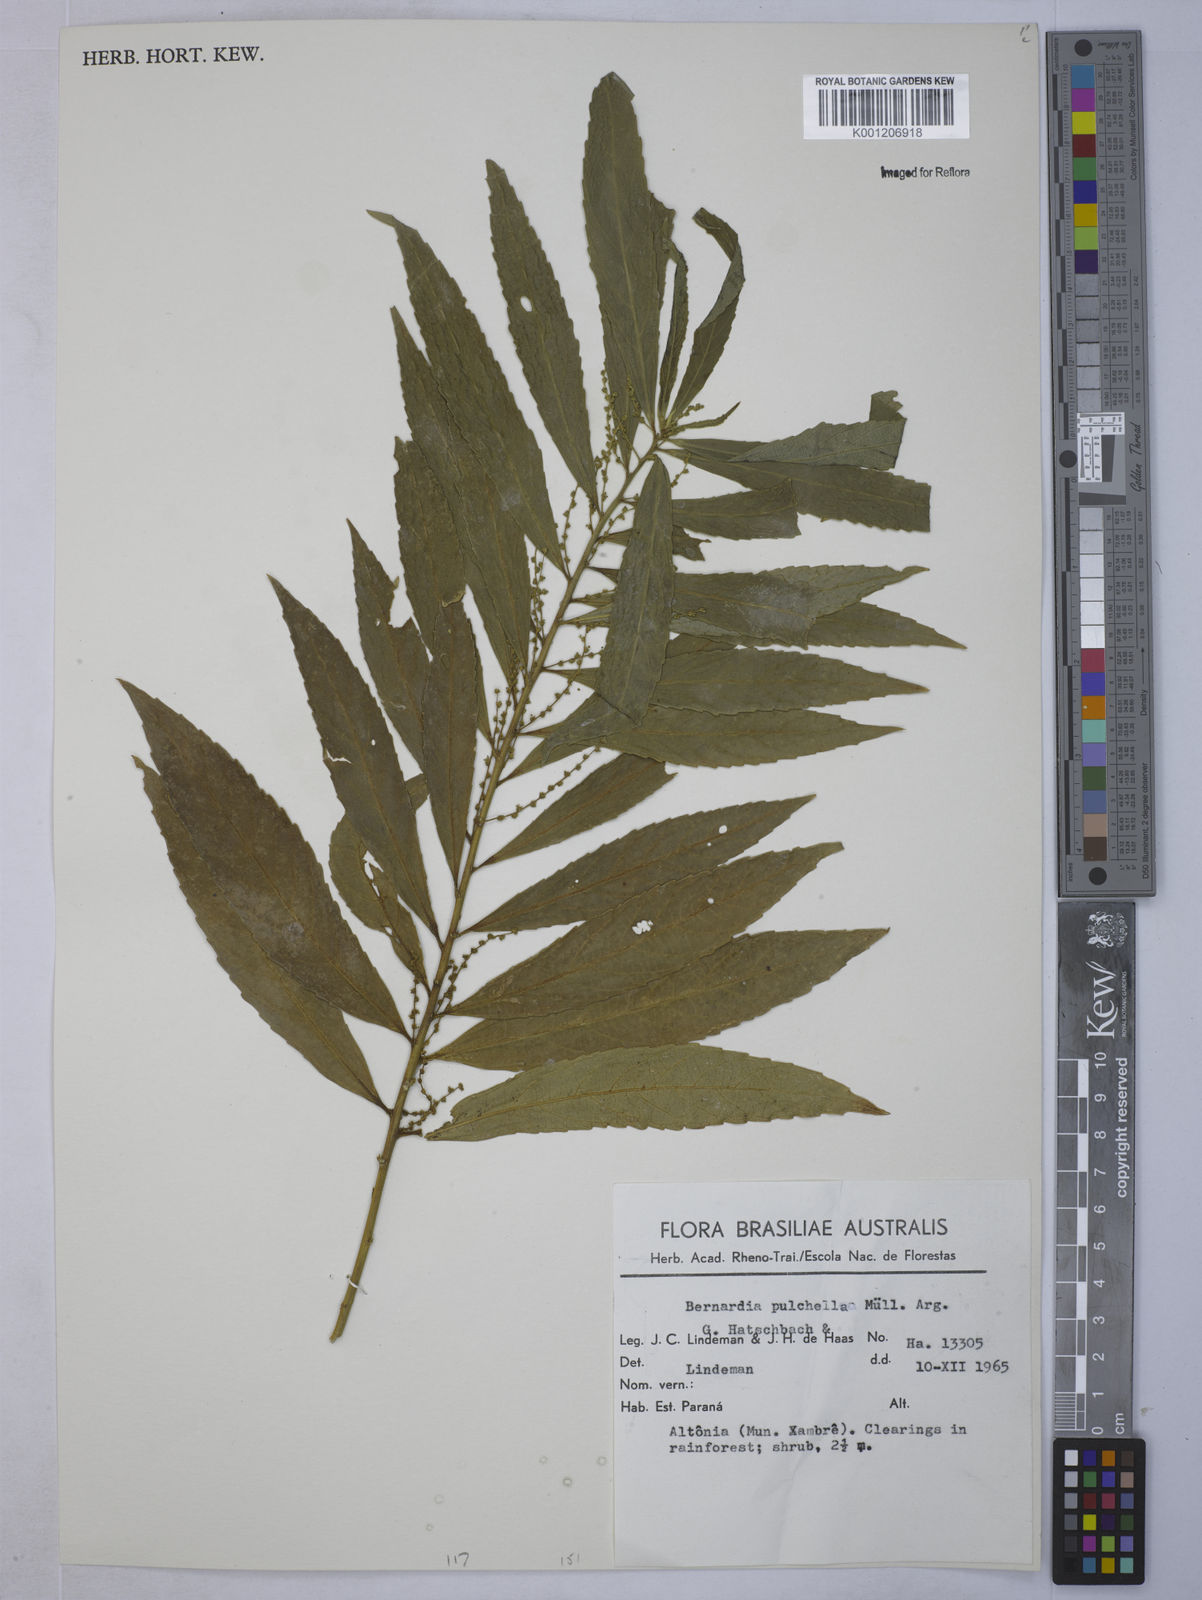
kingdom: Plantae
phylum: Tracheophyta
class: Magnoliopsida
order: Malpighiales
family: Euphorbiaceae
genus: Bernardia
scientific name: Bernardia
